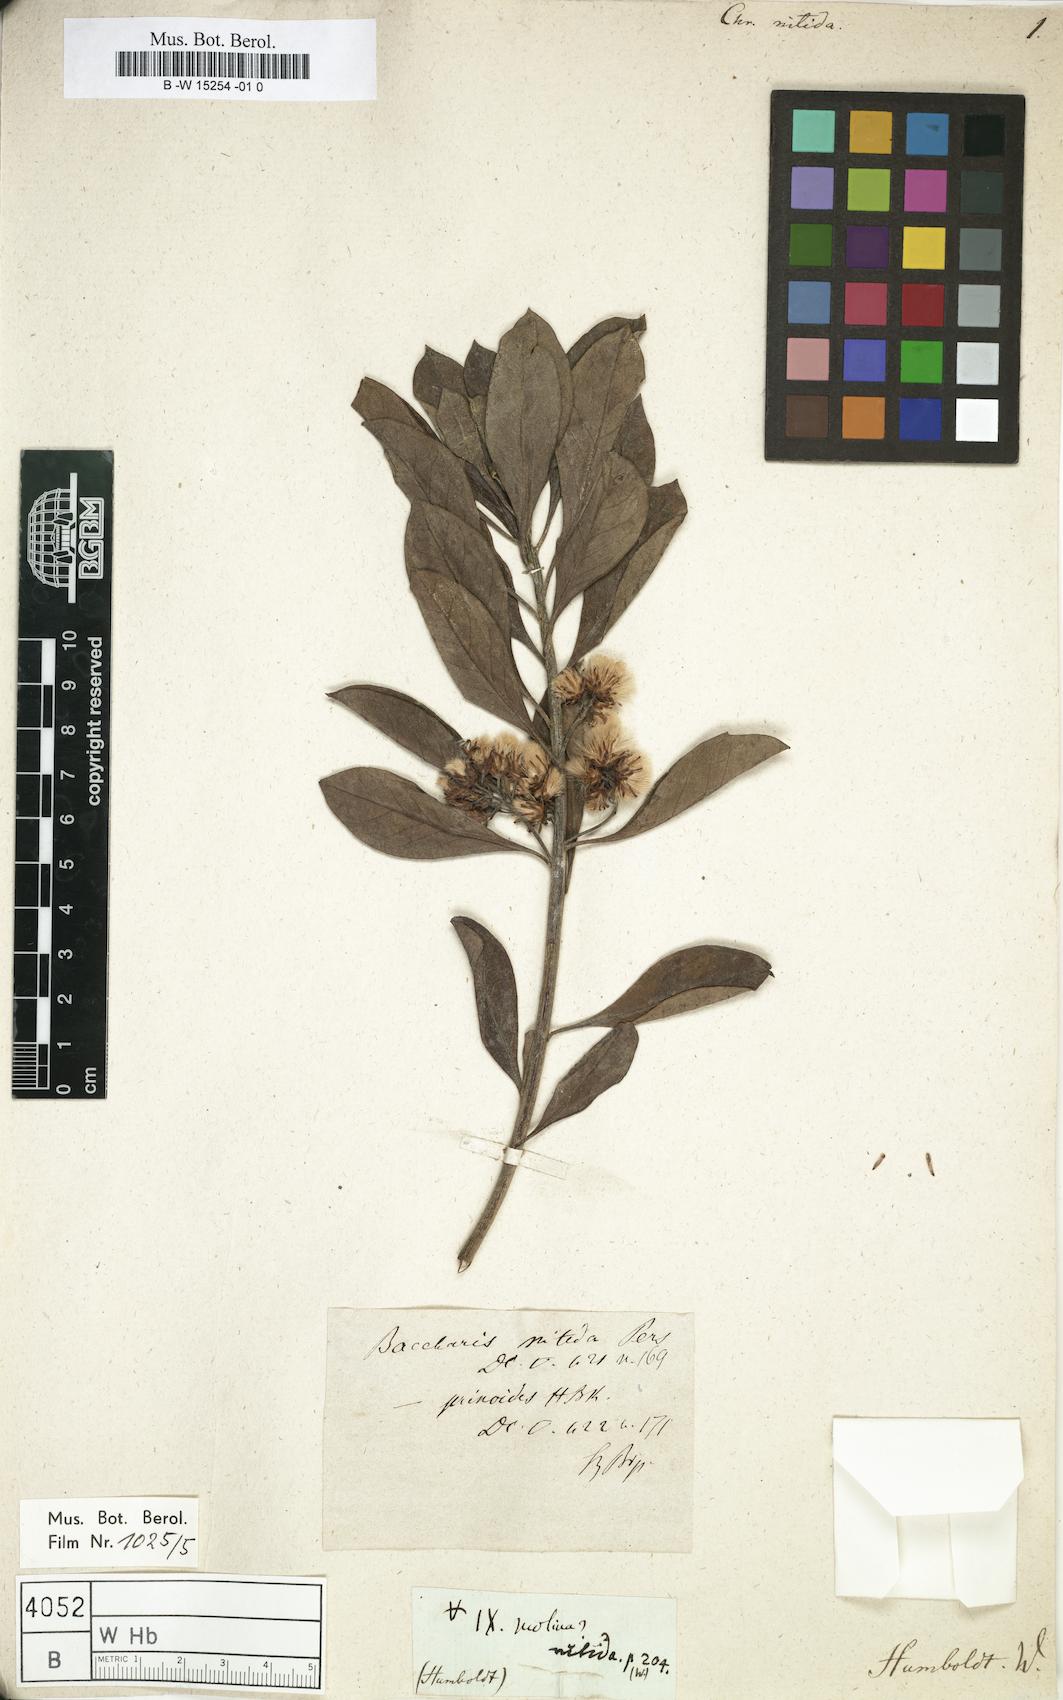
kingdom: Plantae
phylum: Tracheophyta
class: Magnoliopsida
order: Asterales
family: Asteraceae
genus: Chrysocoma
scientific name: Chrysocoma
